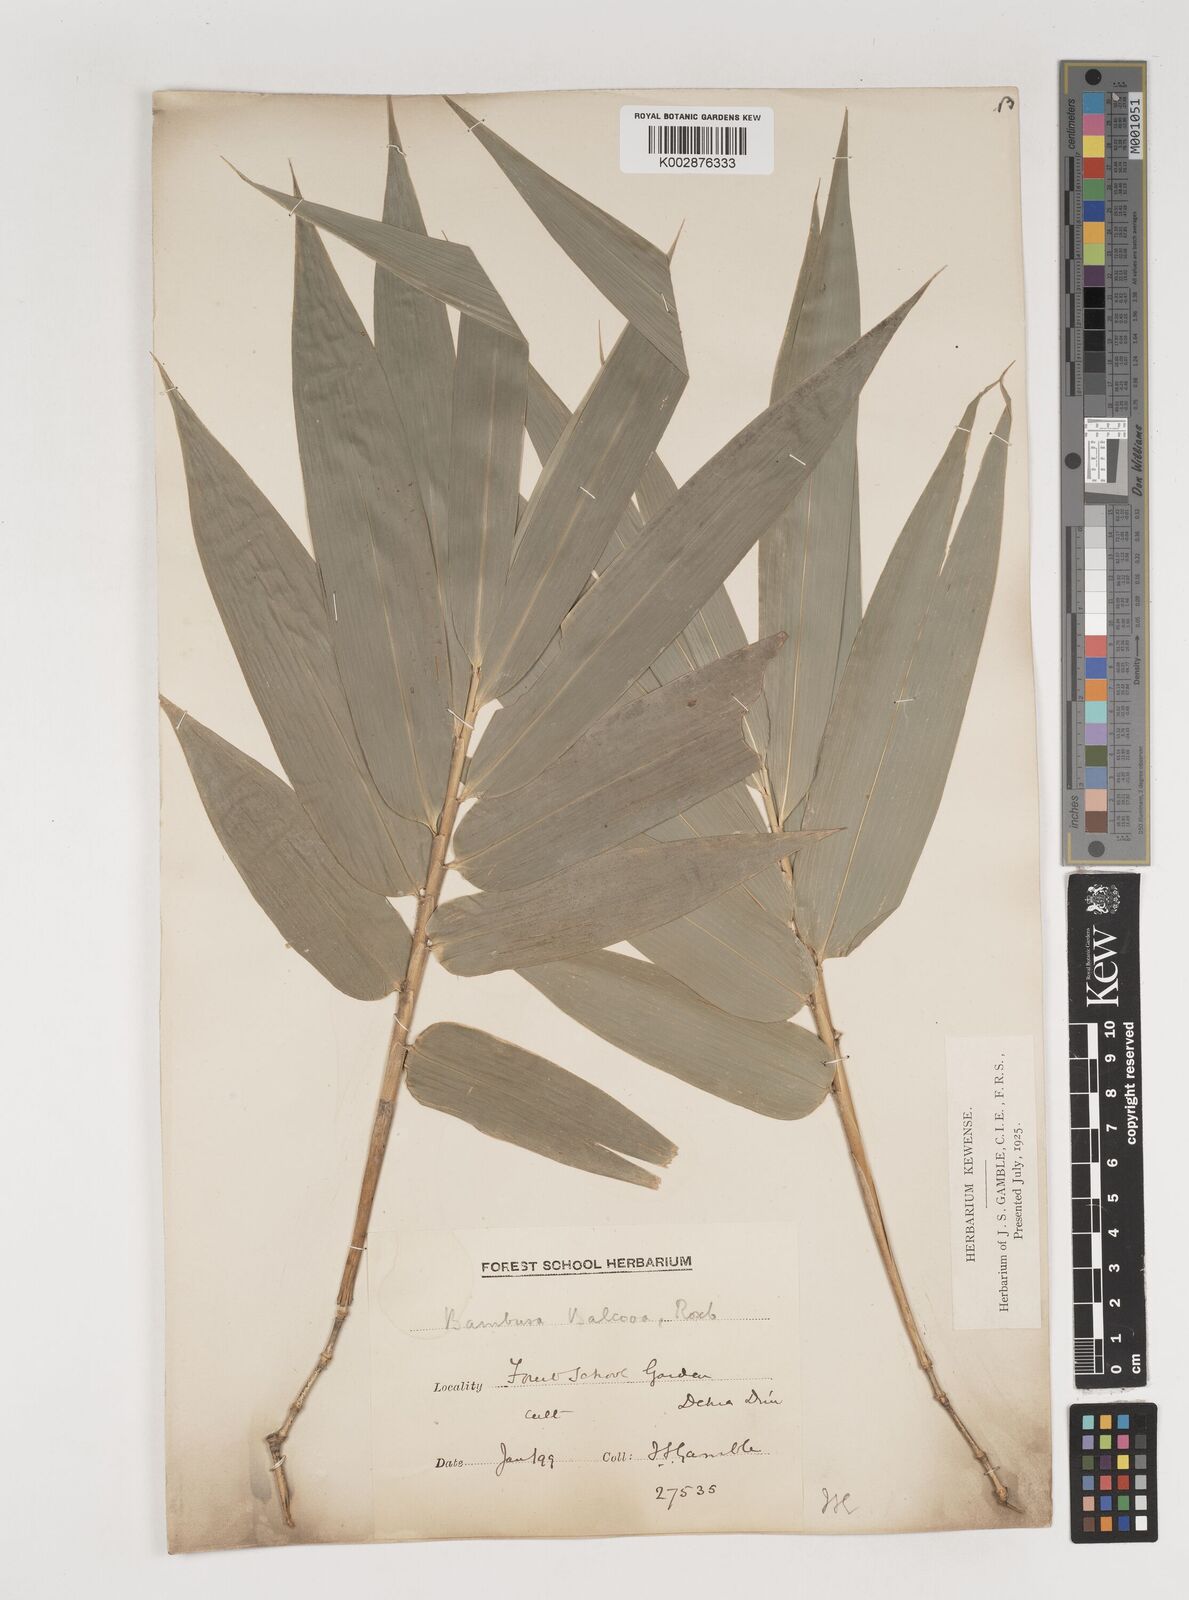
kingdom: Plantae
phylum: Tracheophyta
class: Liliopsida
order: Poales
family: Poaceae
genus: Bambusa
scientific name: Bambusa balcooa
